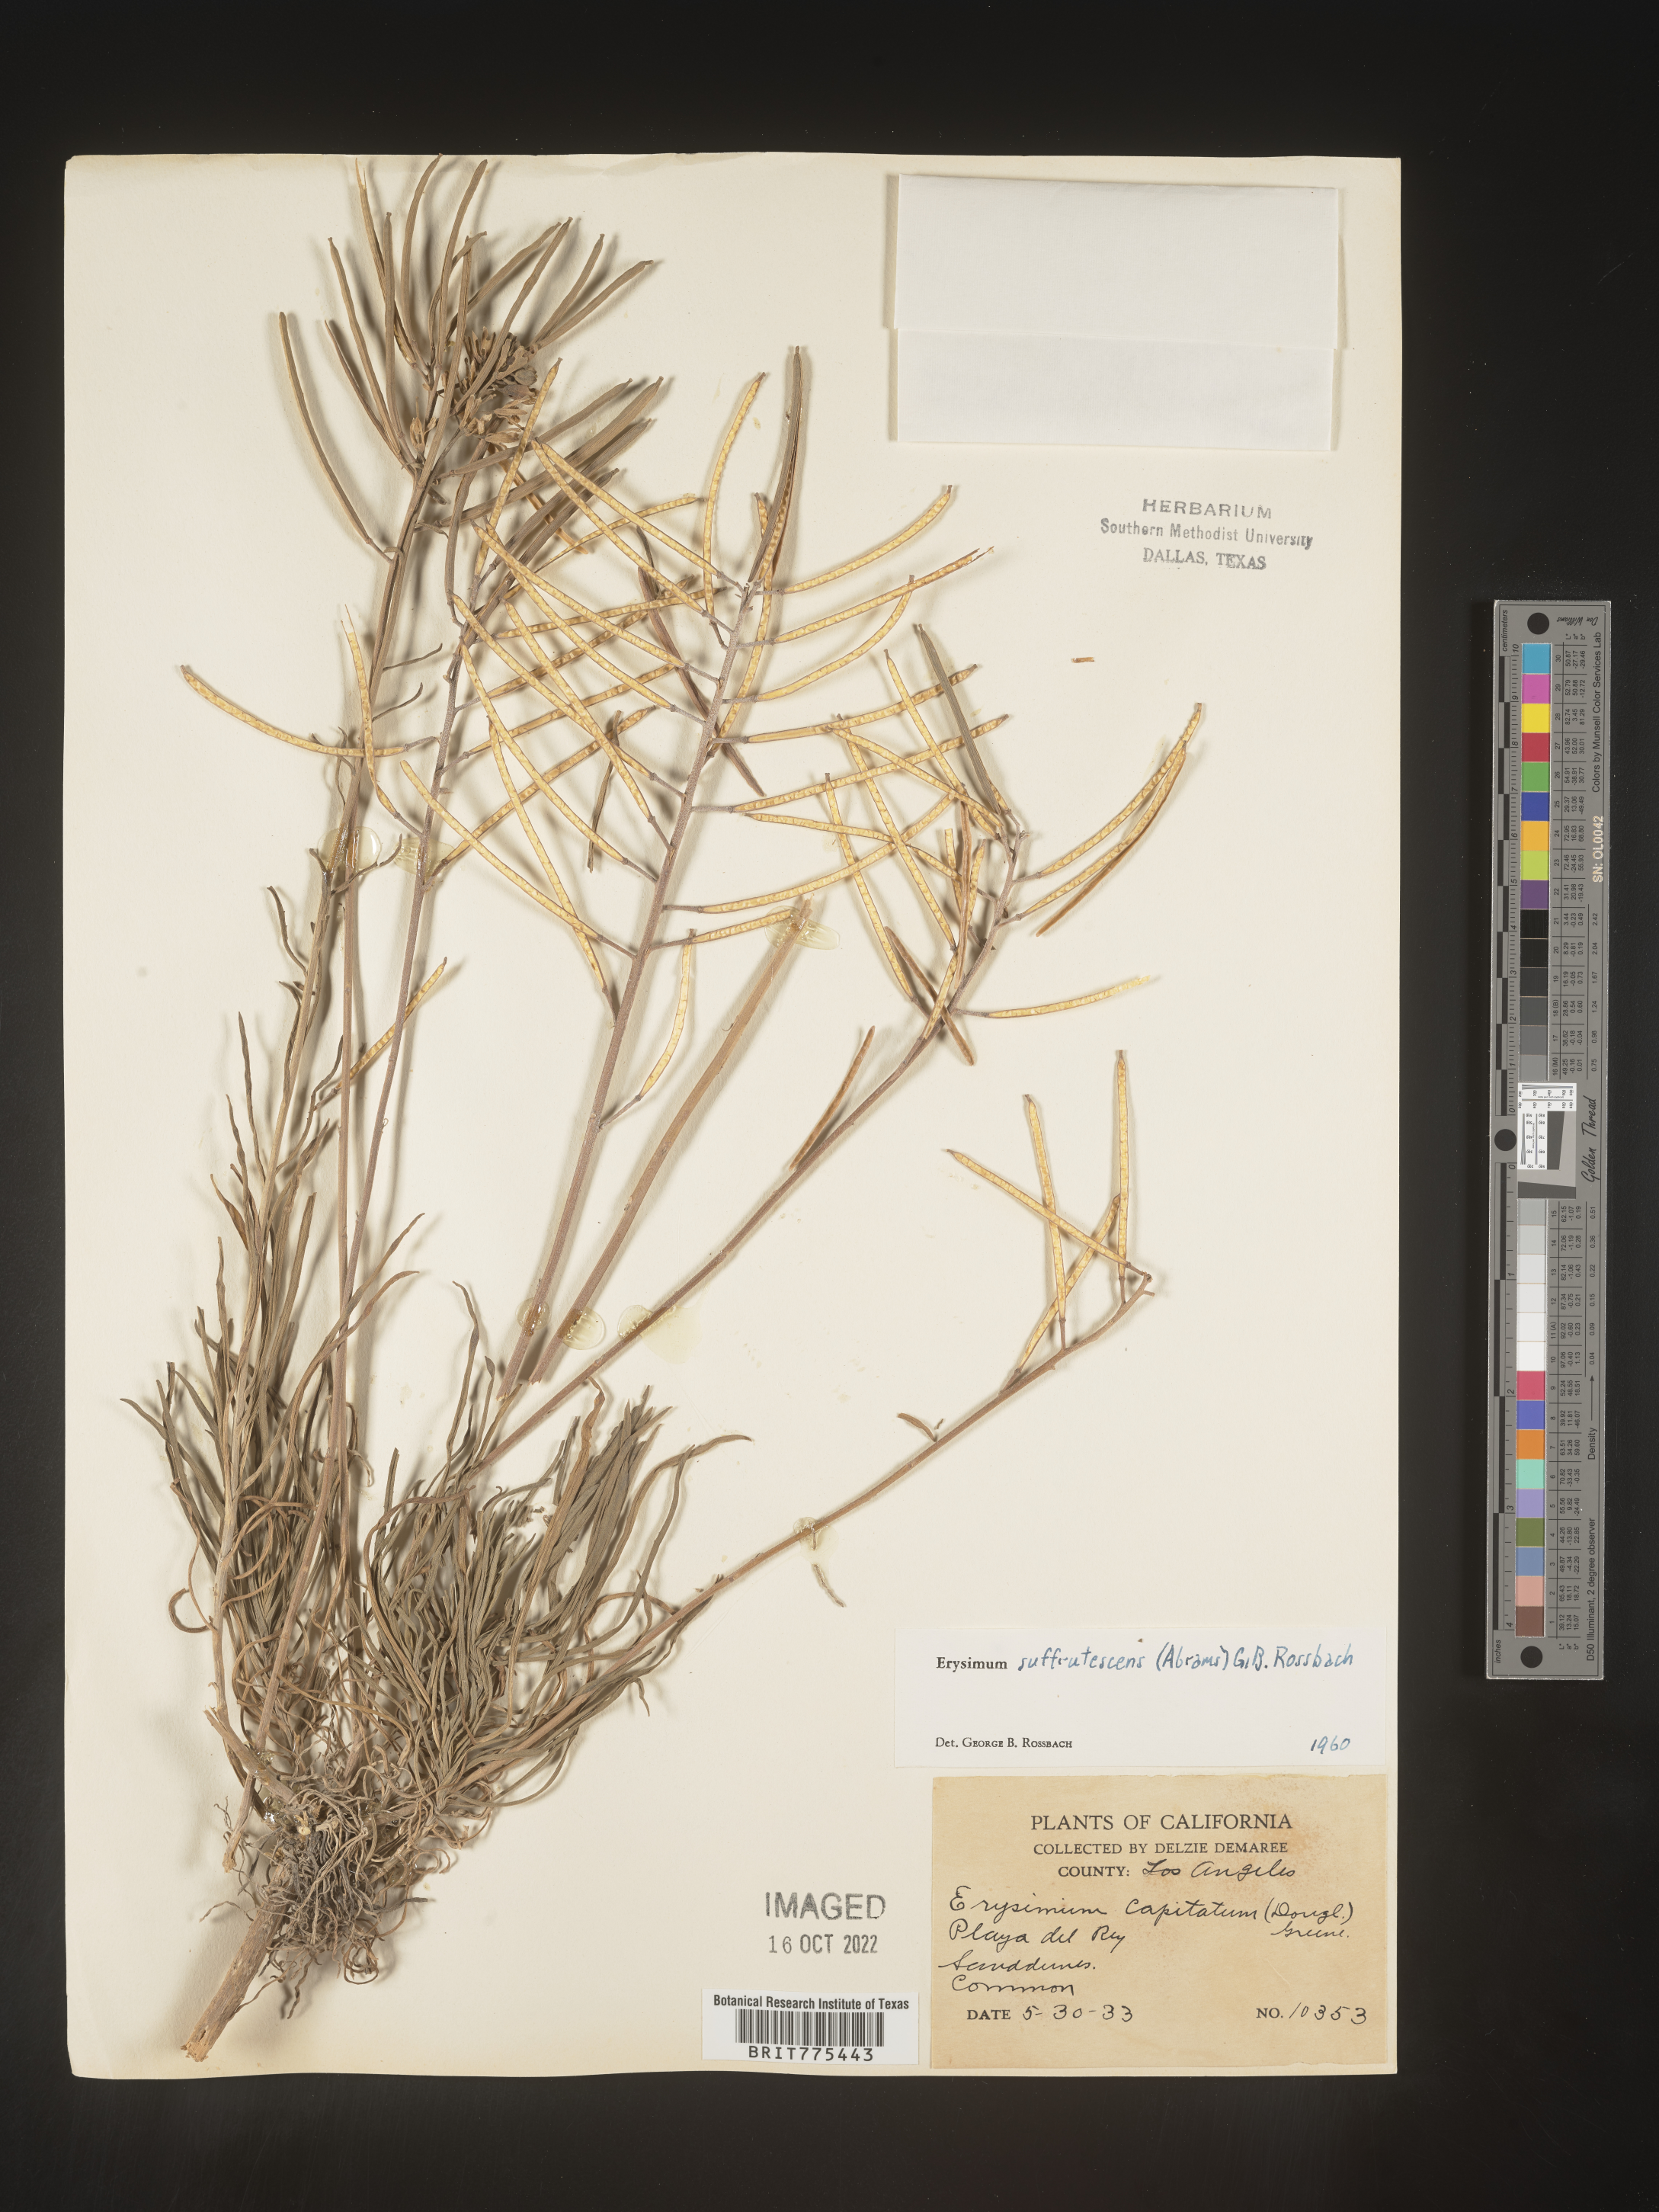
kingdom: Plantae
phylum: Tracheophyta
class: Magnoliopsida
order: Brassicales
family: Brassicaceae
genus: Erysimum
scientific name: Erysimum
